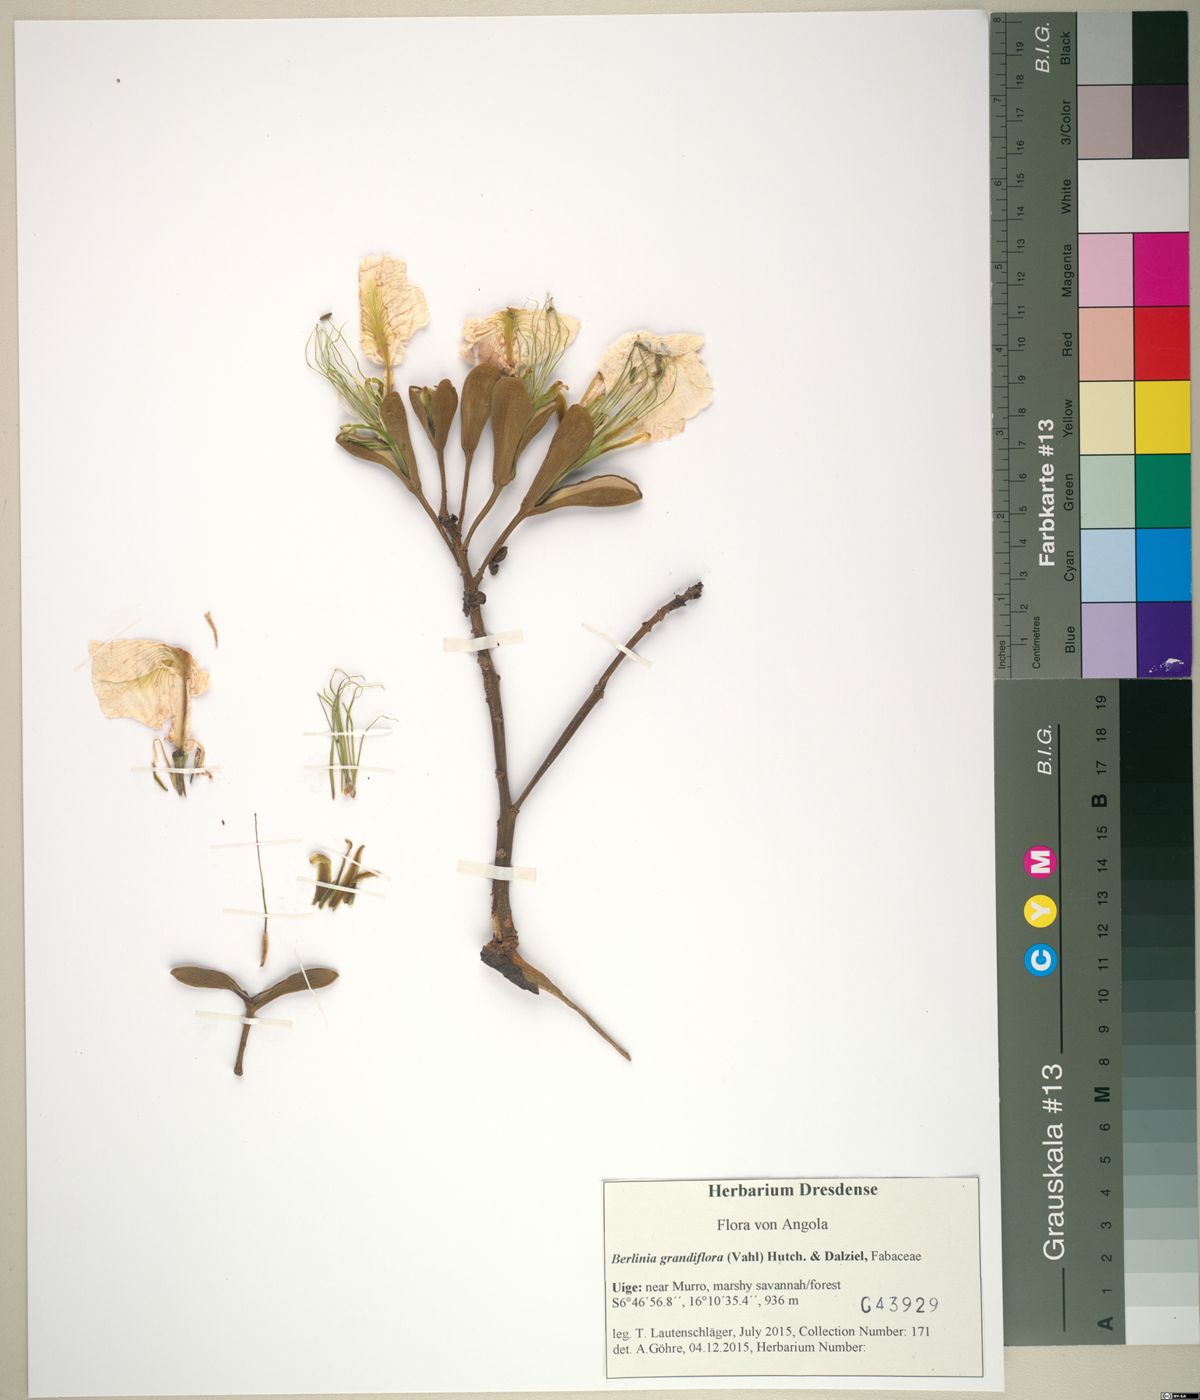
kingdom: Plantae
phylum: Tracheophyta
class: Magnoliopsida
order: Fabales
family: Fabaceae
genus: Berlinia
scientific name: Berlinia grandiflora
